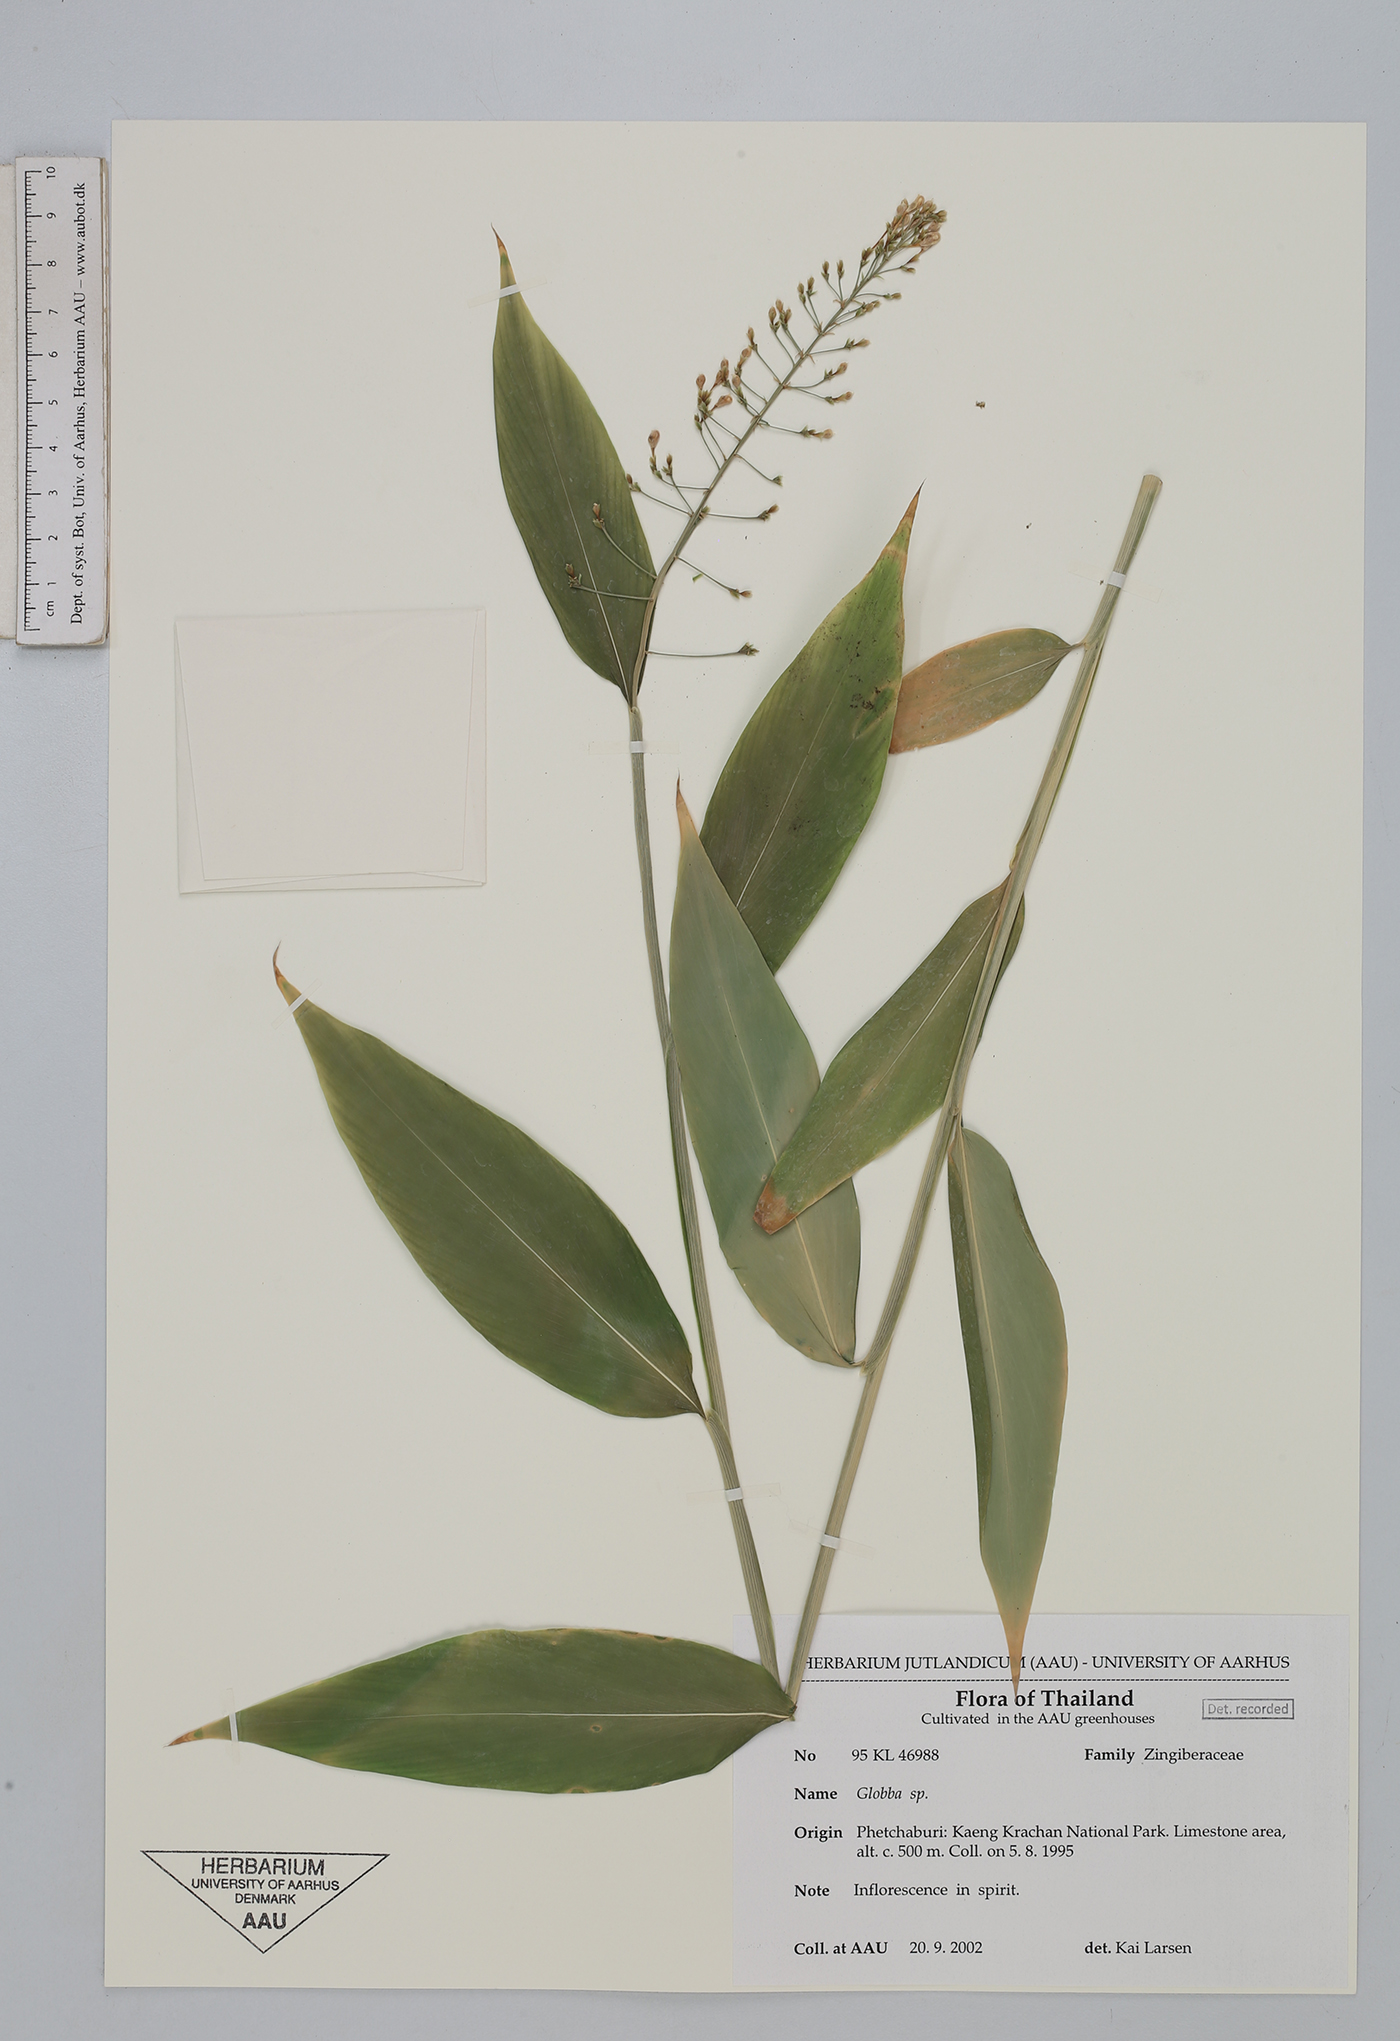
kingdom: Plantae
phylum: Tracheophyta
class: Liliopsida
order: Zingiberales
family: Zingiberaceae
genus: Globba
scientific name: Globba newmanii
